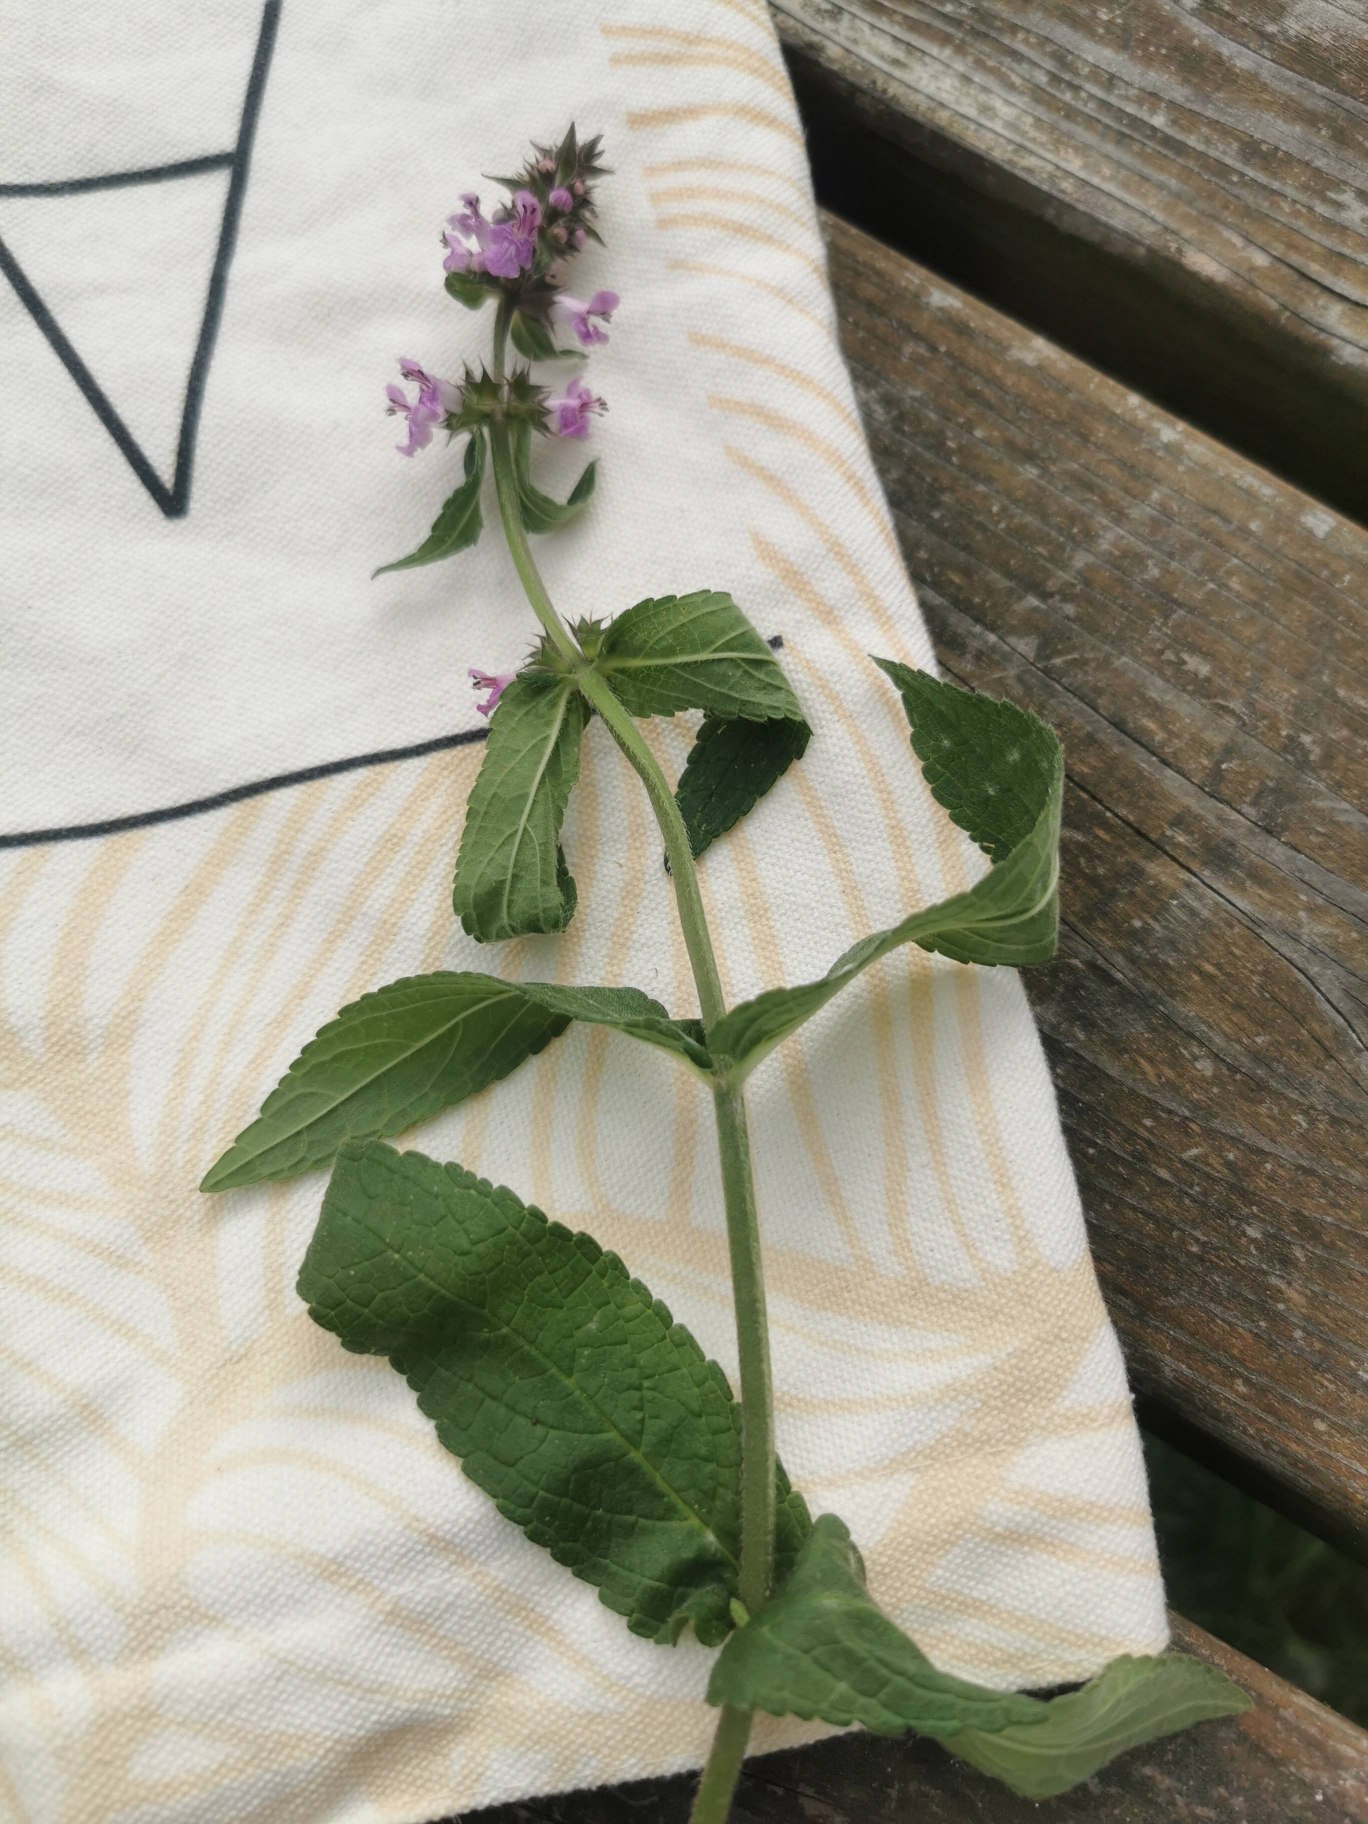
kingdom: Plantae
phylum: Tracheophyta
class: Magnoliopsida
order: Lamiales
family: Lamiaceae
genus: Stachys
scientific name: Stachys palustris
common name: Kær-galtetand
